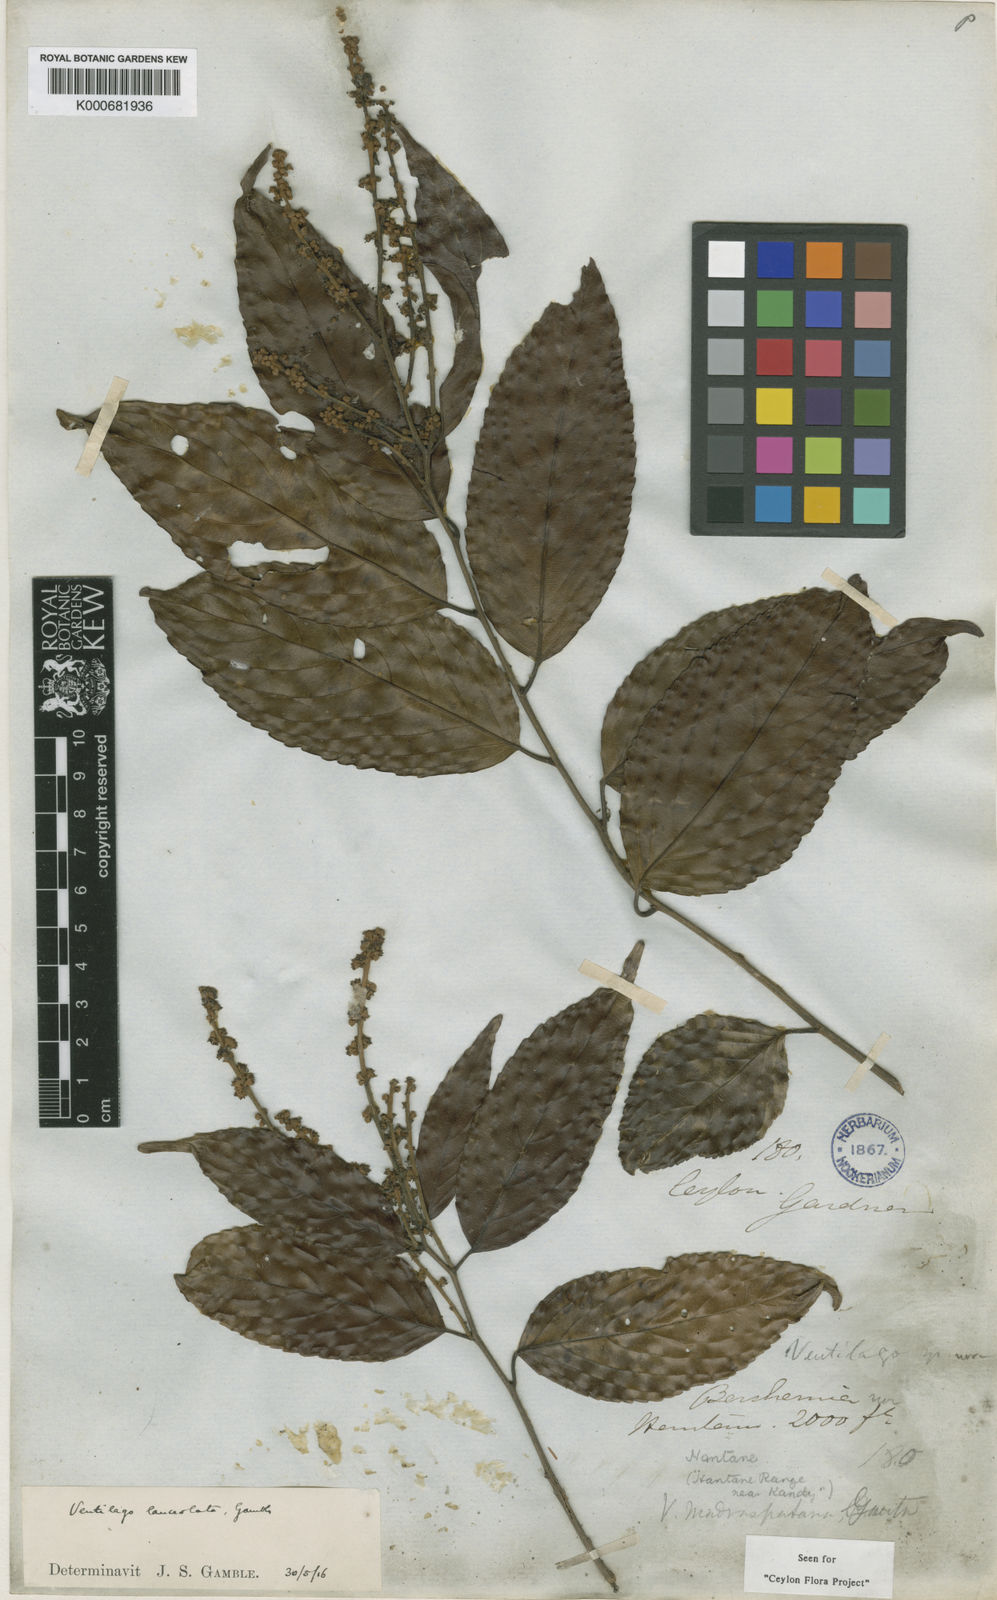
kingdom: Plantae
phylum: Tracheophyta
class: Magnoliopsida
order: Rosales
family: Rhamnaceae
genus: Ventilago
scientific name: Ventilago gamblei
